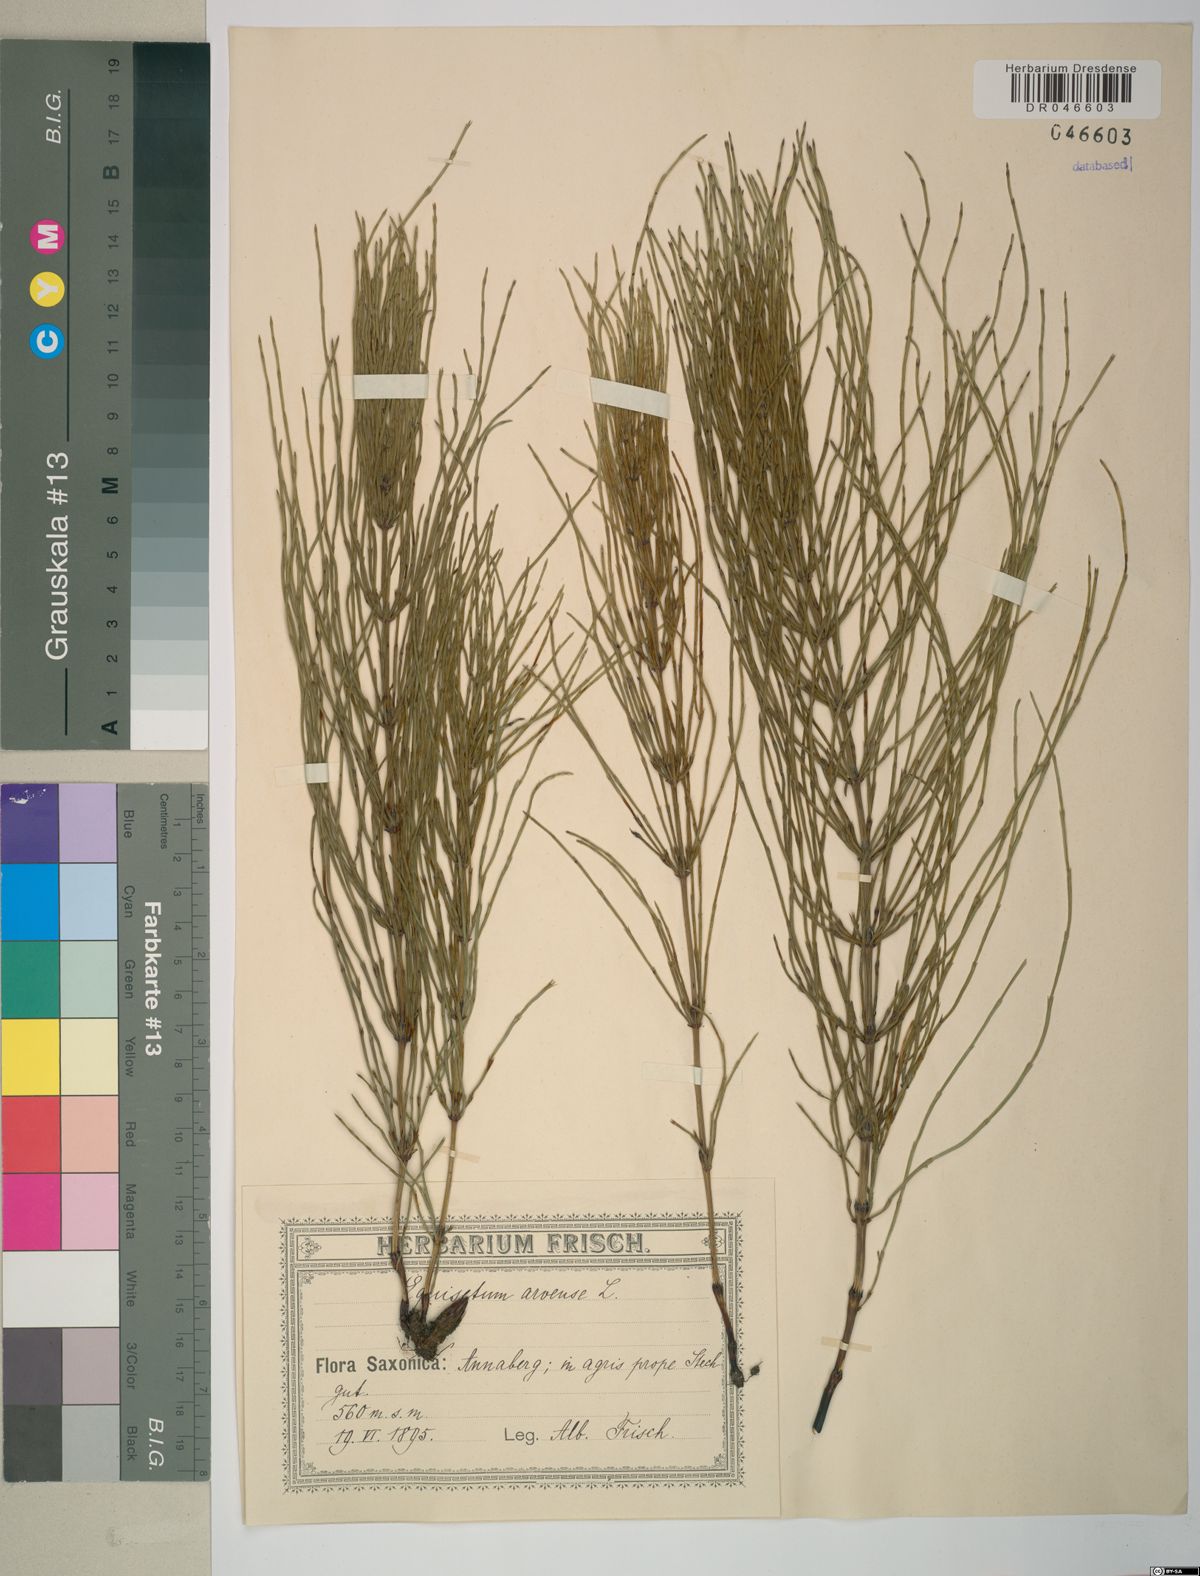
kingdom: Plantae
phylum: Tracheophyta
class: Polypodiopsida
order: Equisetales
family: Equisetaceae
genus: Equisetum
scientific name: Equisetum arvense
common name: Field horsetail
